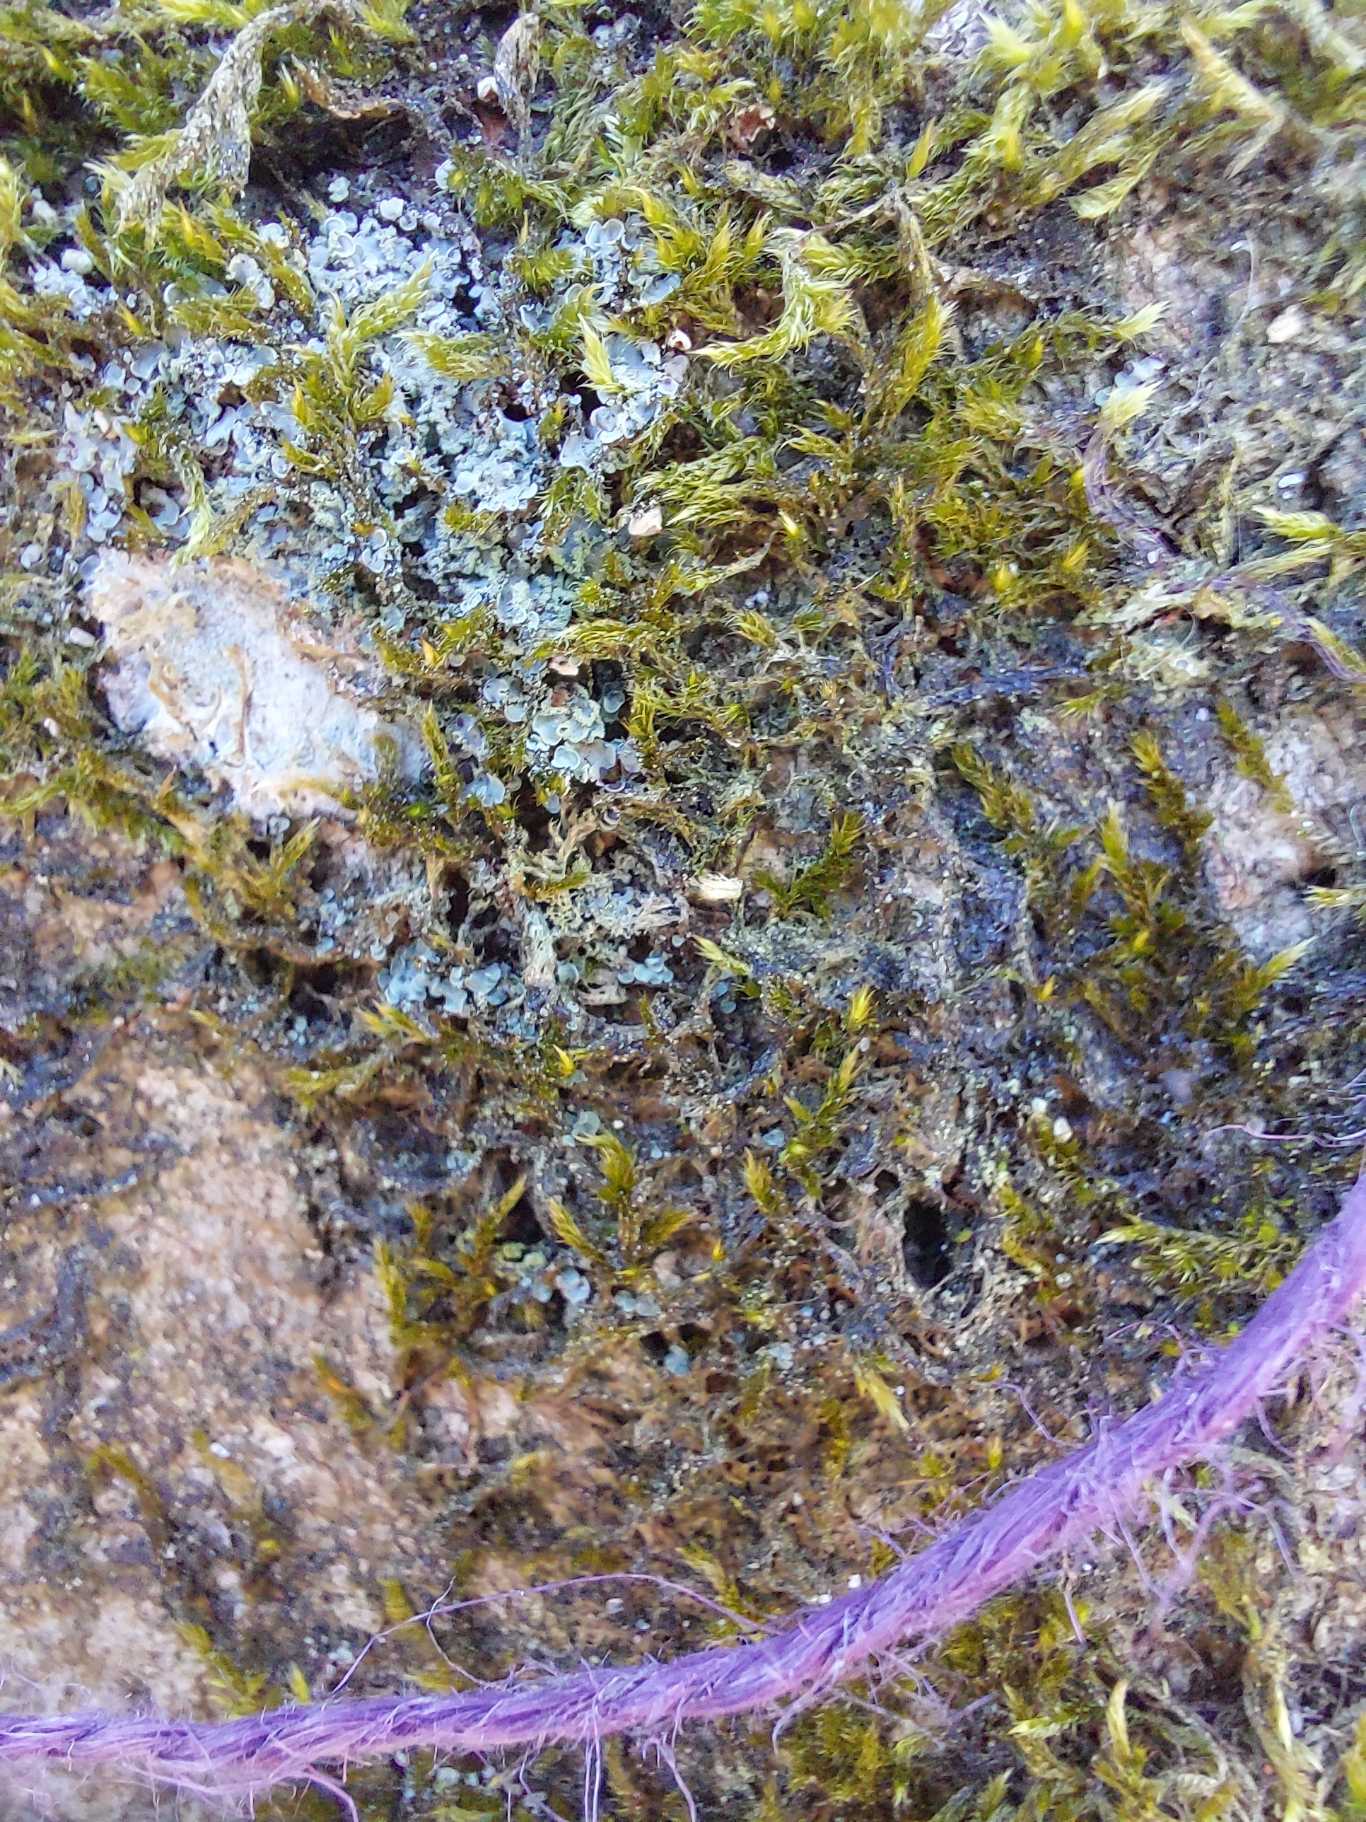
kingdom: Fungi
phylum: Ascomycota
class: Eurotiomycetes
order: Verrucariales
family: Verrucariaceae
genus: Normandina
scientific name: Normandina pulchella
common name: Smuk konfettilav
